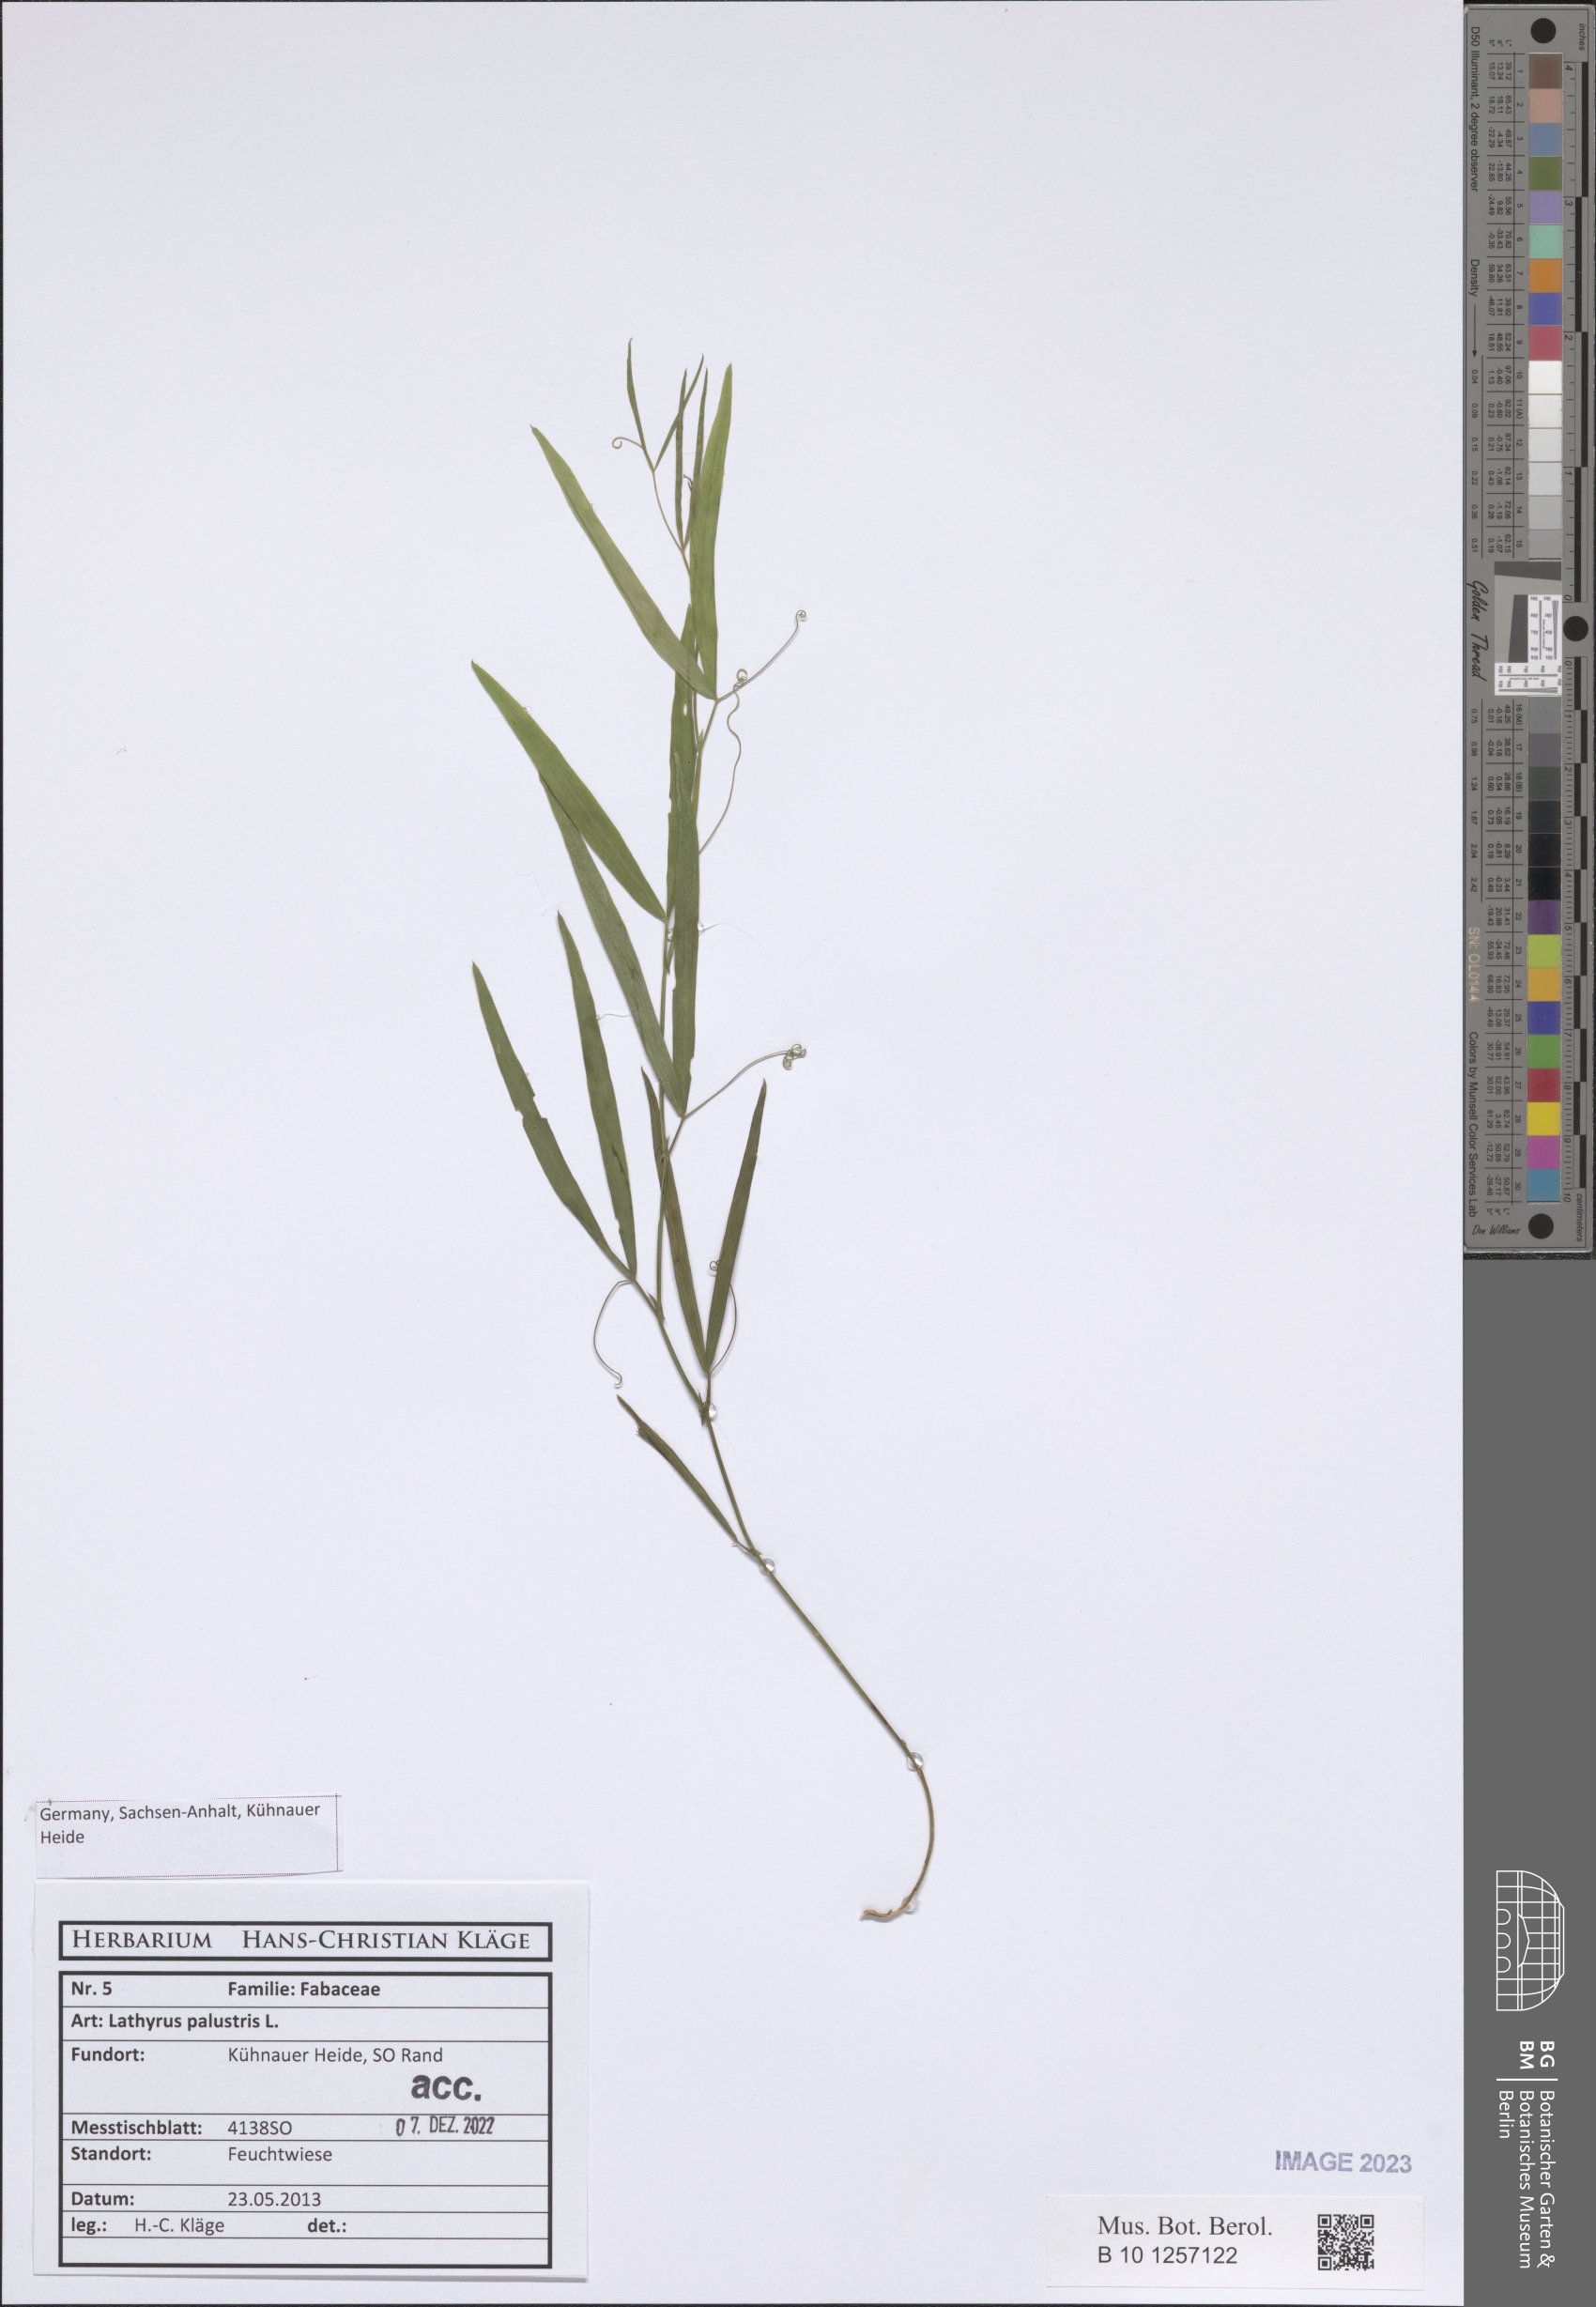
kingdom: Plantae
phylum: Tracheophyta
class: Magnoliopsida
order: Fabales
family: Fabaceae
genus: Lathyrus
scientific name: Lathyrus palustris
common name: Marsh pea
